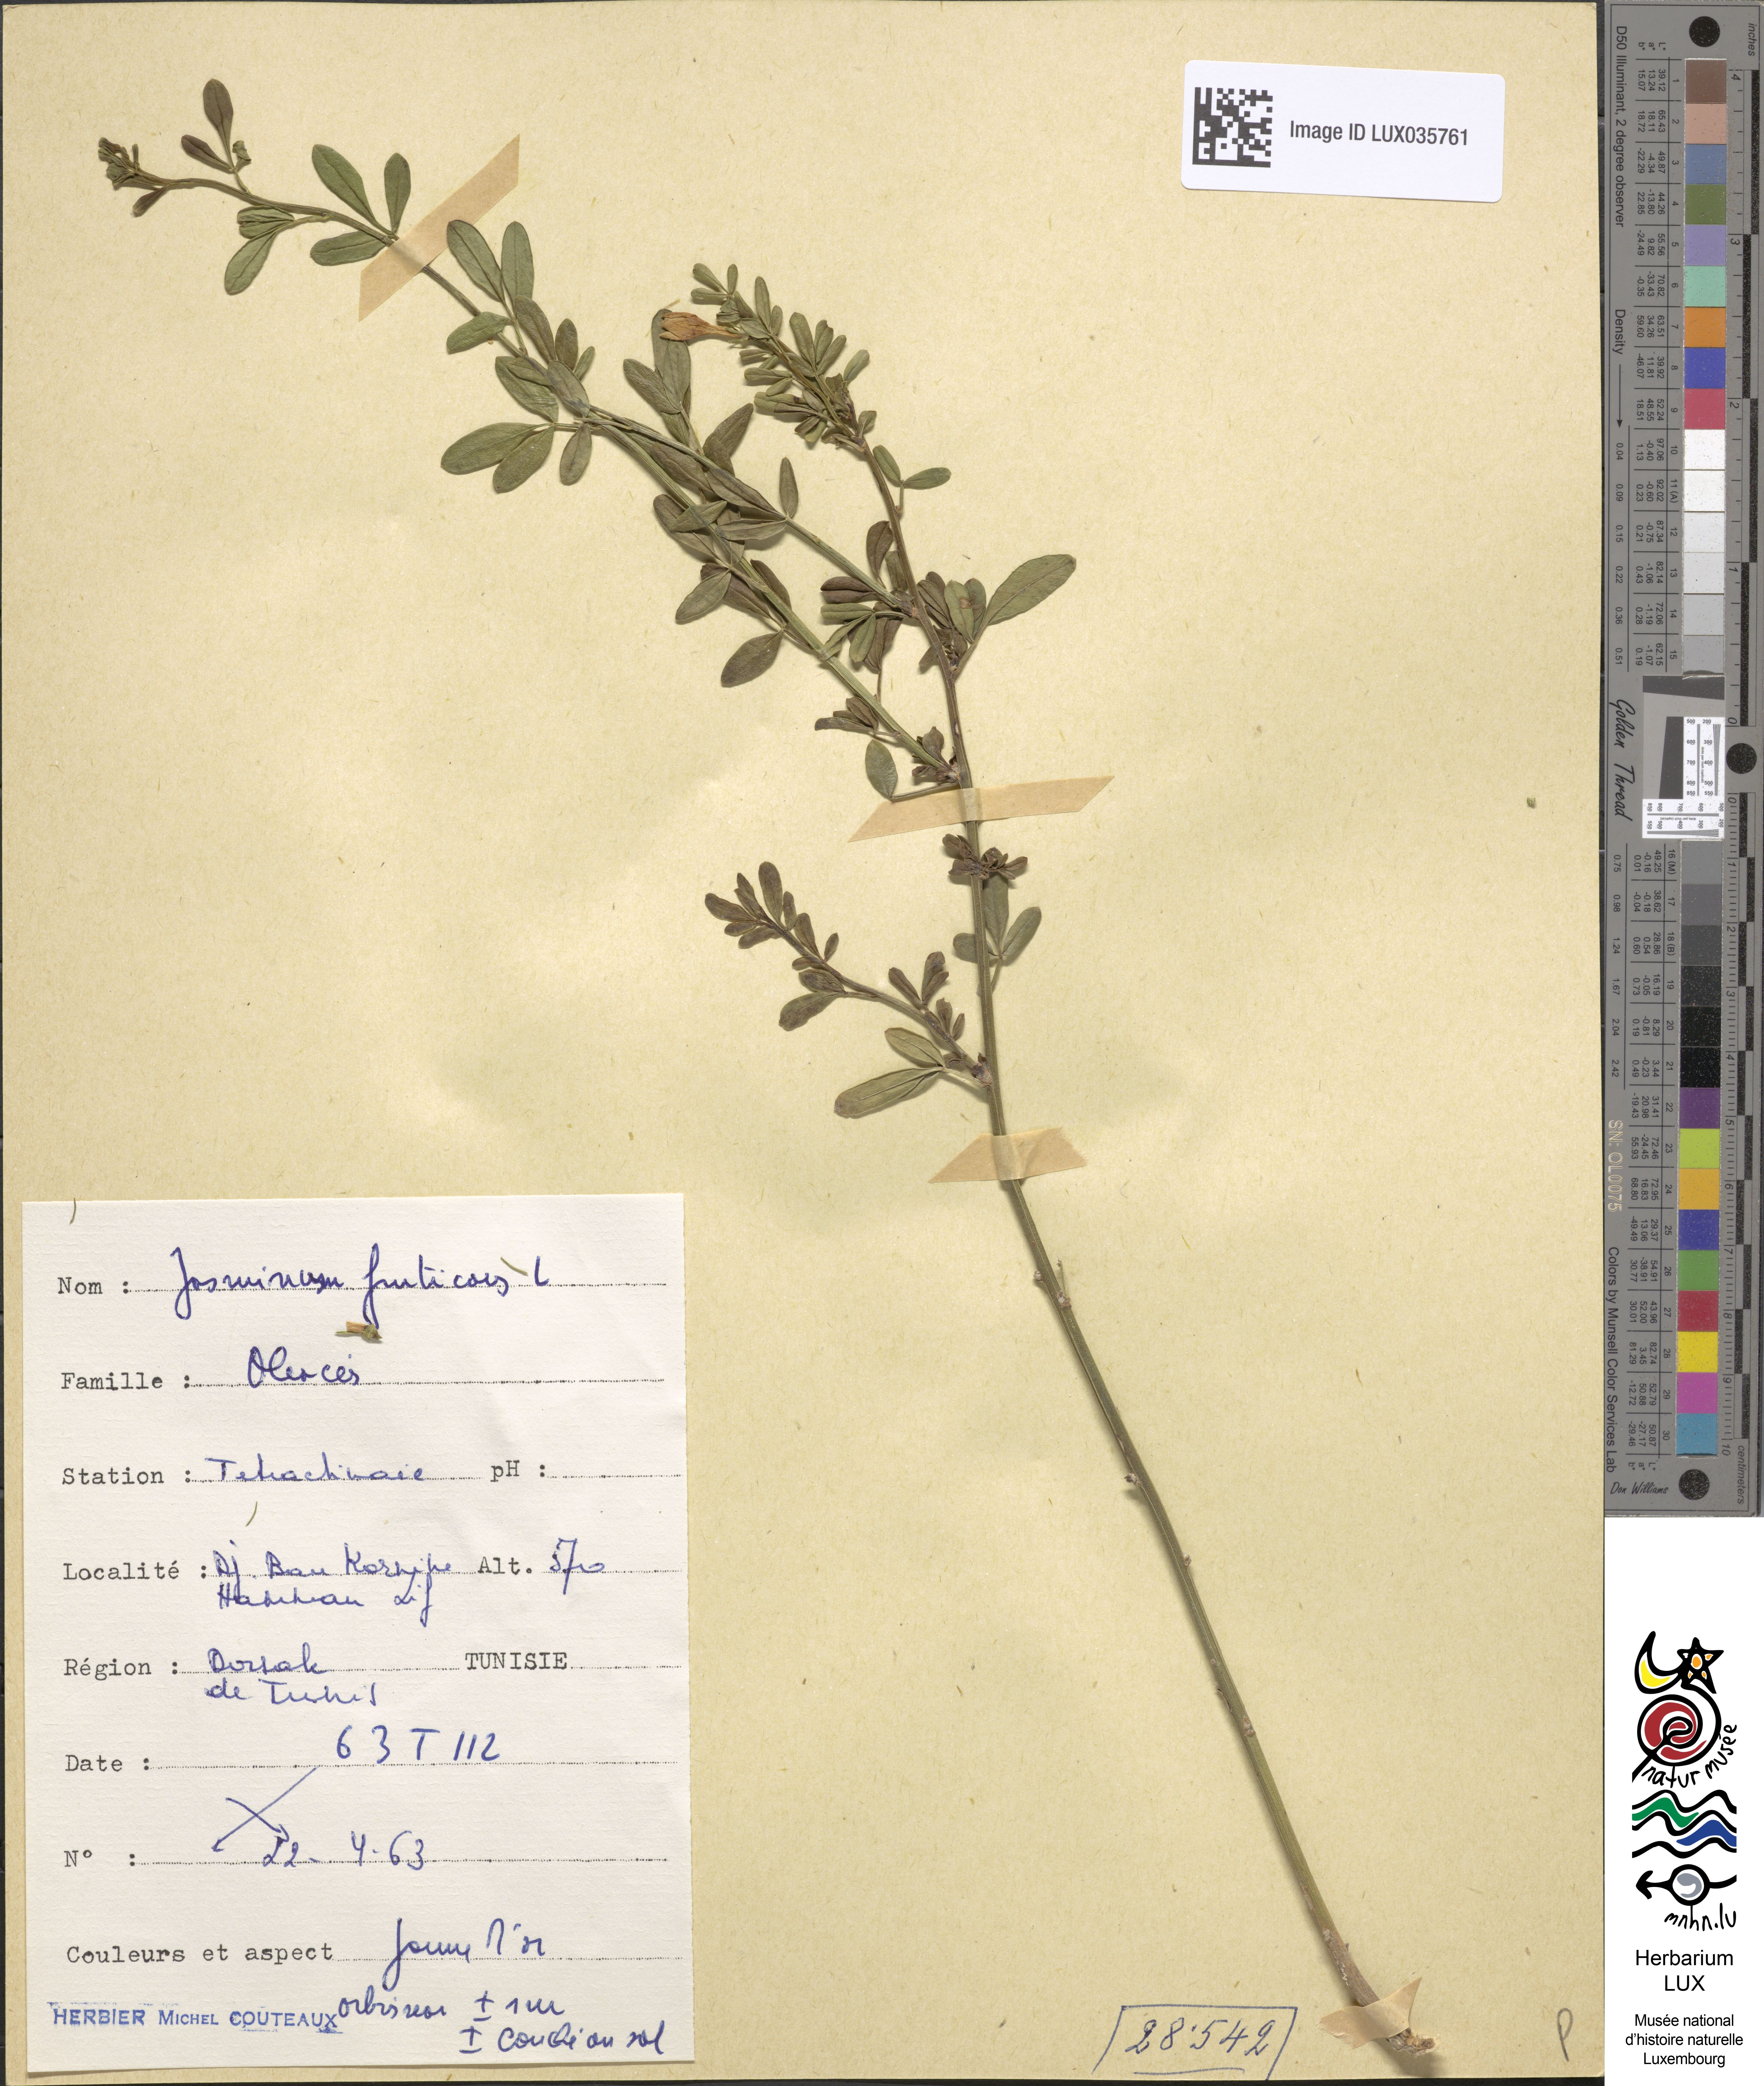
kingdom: Plantae
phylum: Tracheophyta
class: Magnoliopsida
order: Lamiales
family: Oleaceae
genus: Chrysojasminum
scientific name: Chrysojasminum fruticans
